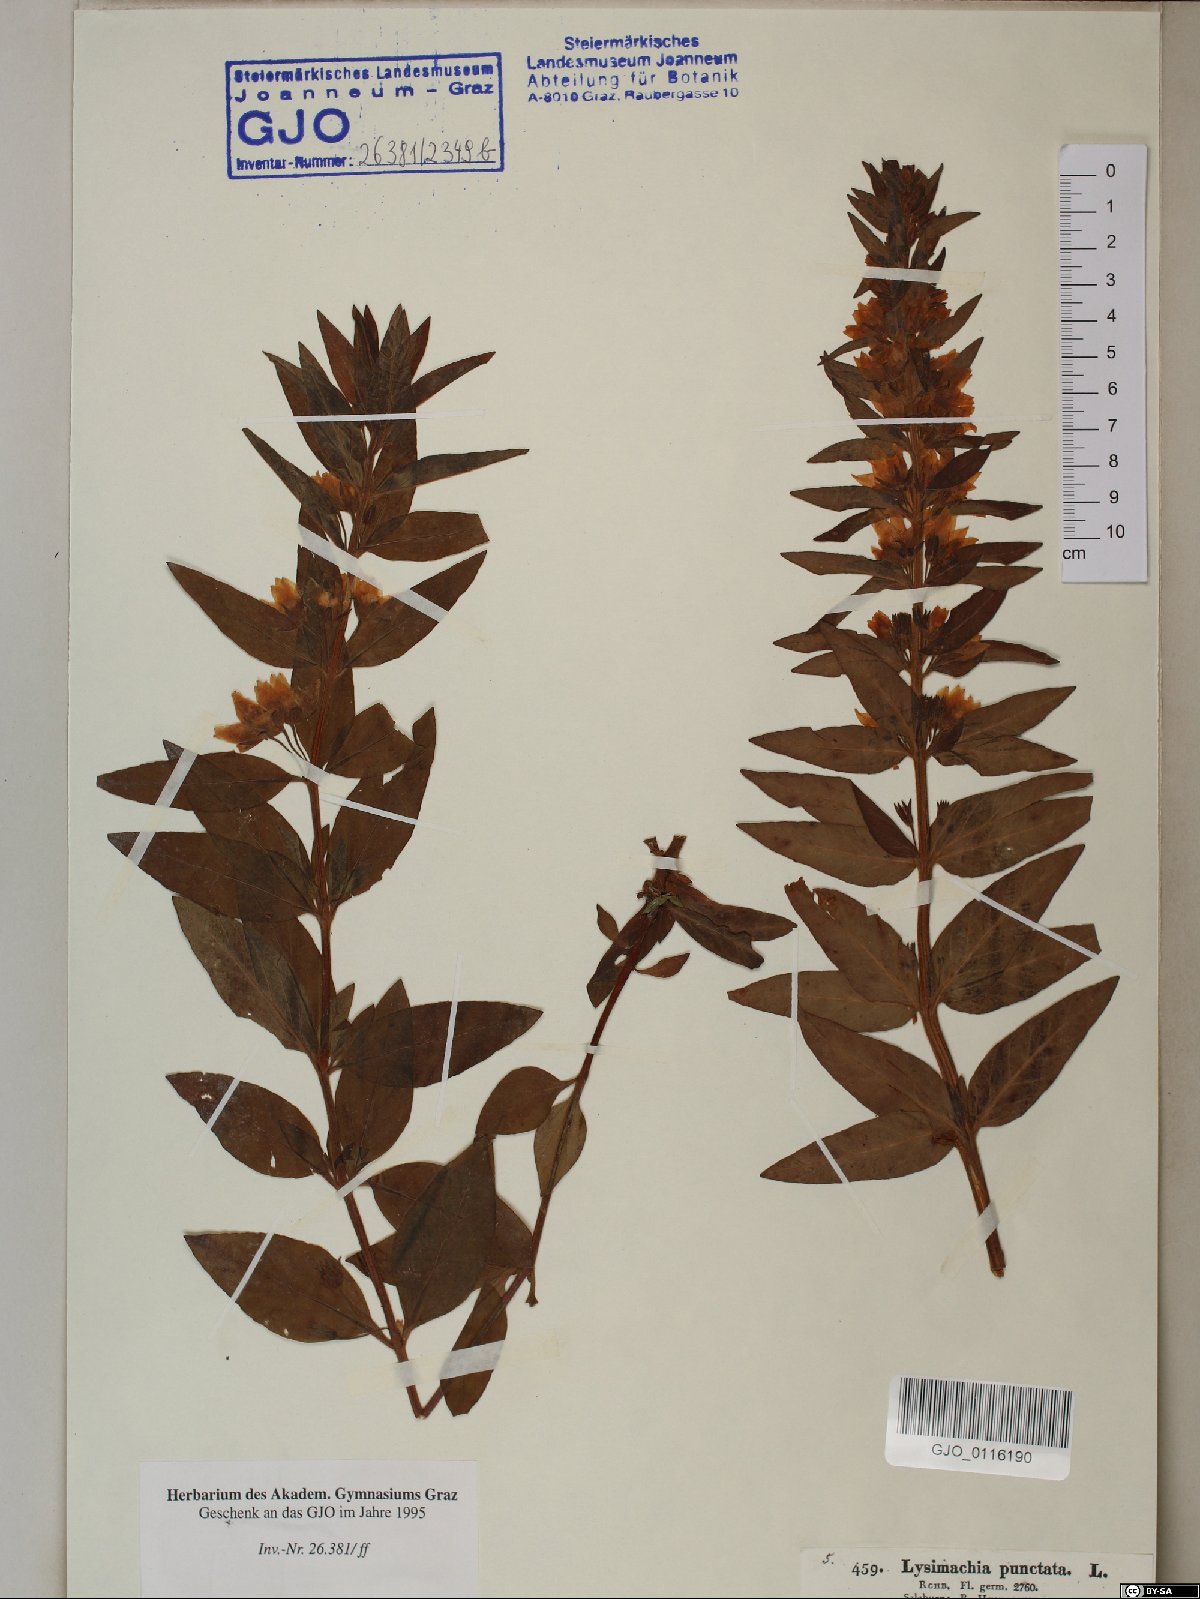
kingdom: Plantae
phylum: Tracheophyta
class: Magnoliopsida
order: Ericales
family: Primulaceae
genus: Lysimachia
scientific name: Lysimachia punctata
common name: Dotted loosestrife
